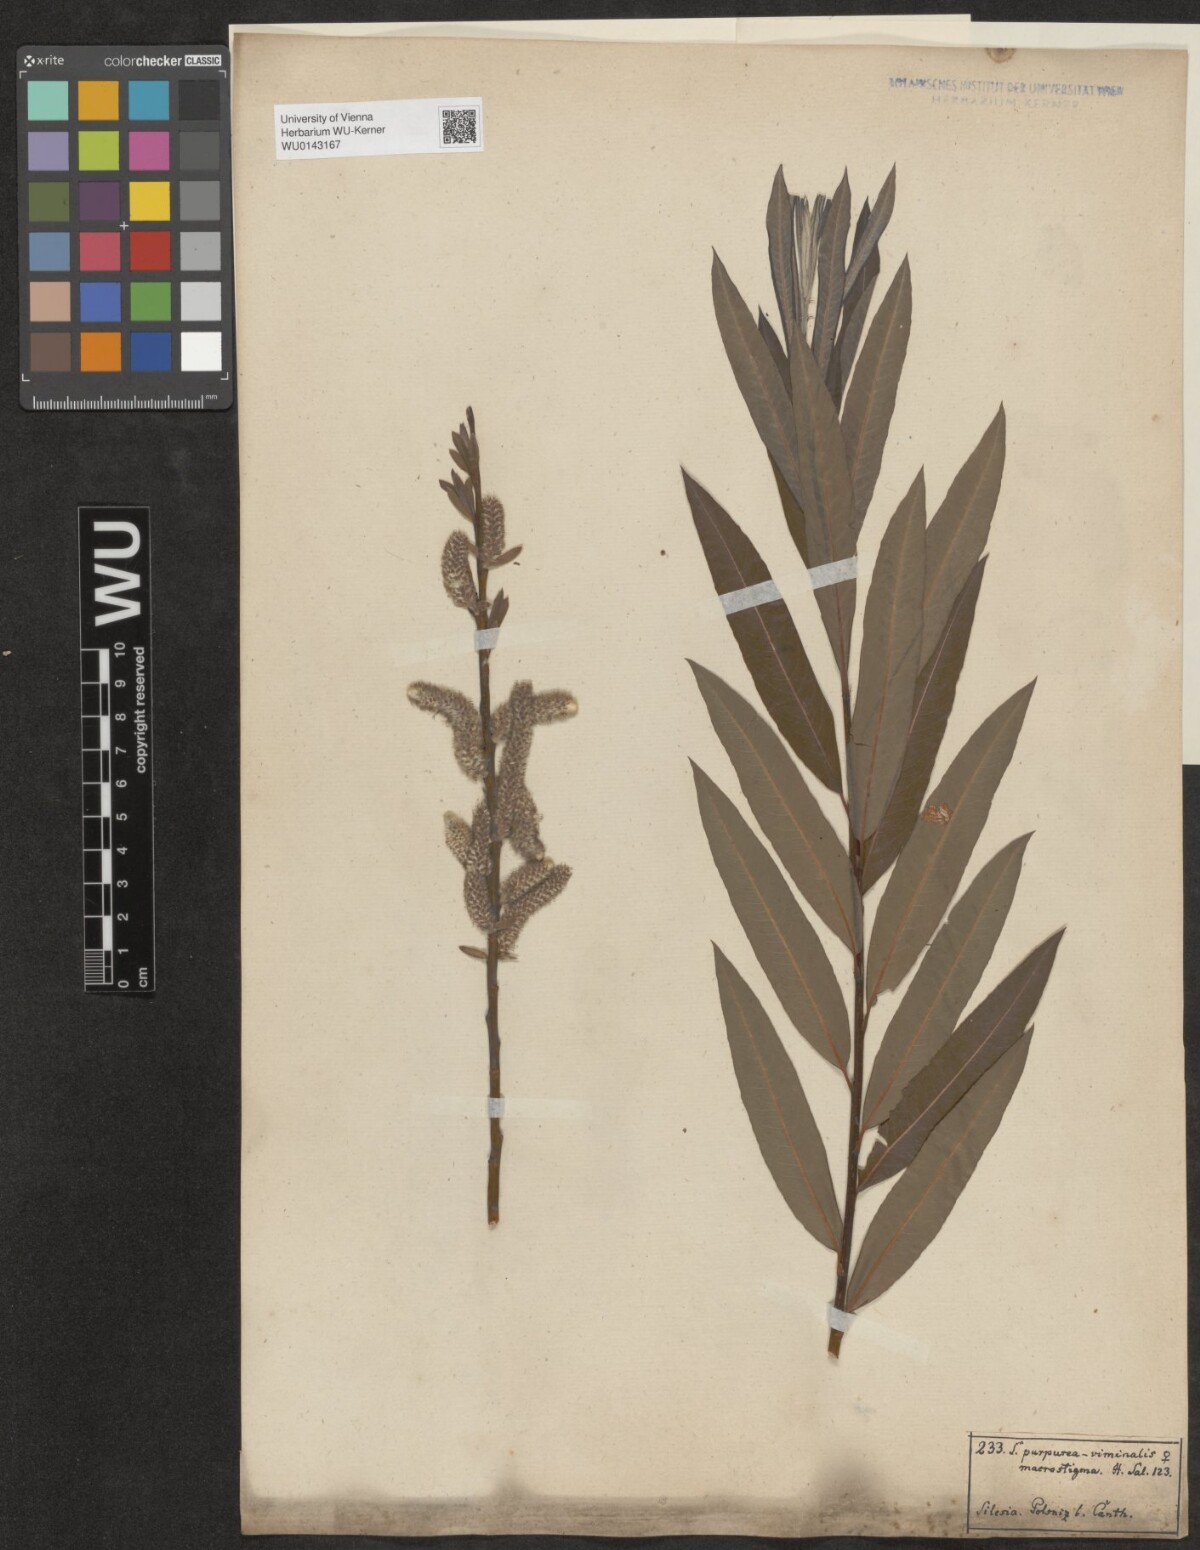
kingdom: Plantae
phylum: Tracheophyta
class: Magnoliopsida
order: Malpighiales
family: Salicaceae
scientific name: Salicaceae
